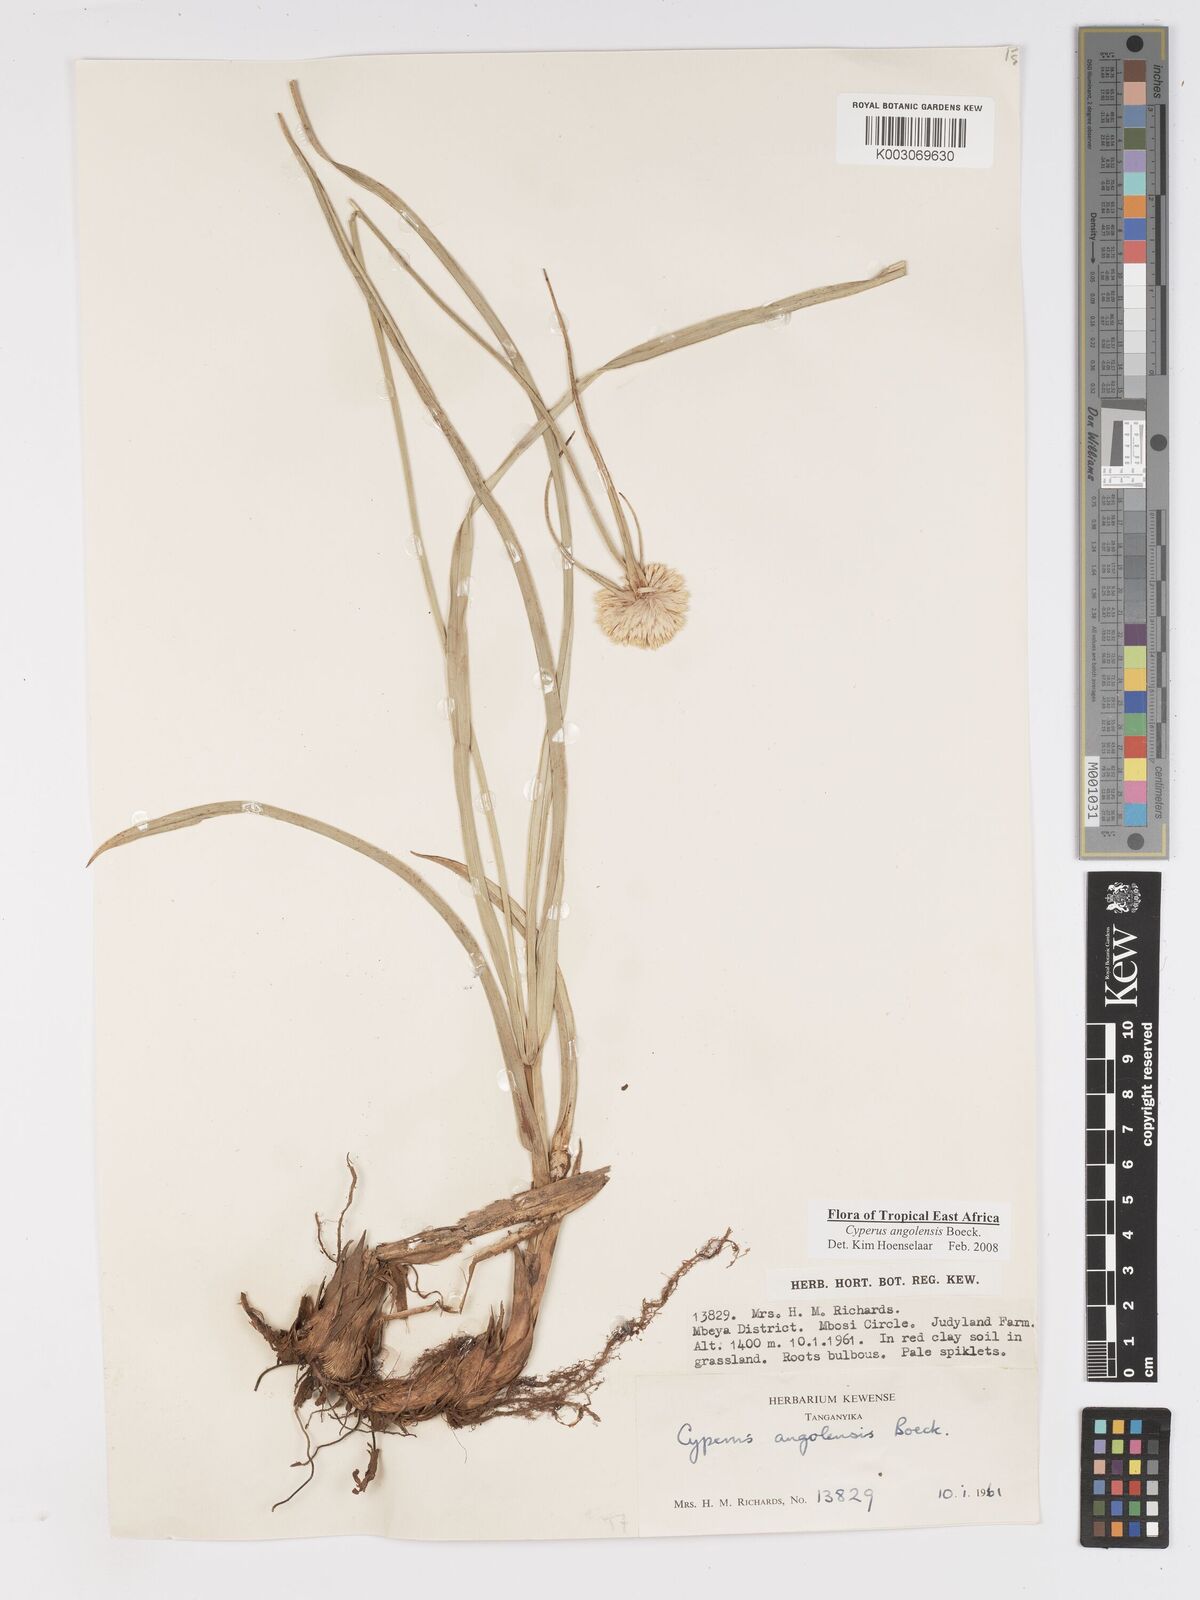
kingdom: Plantae
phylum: Tracheophyta
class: Liliopsida
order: Poales
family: Cyperaceae
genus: Cyperus
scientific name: Cyperus angolensis
